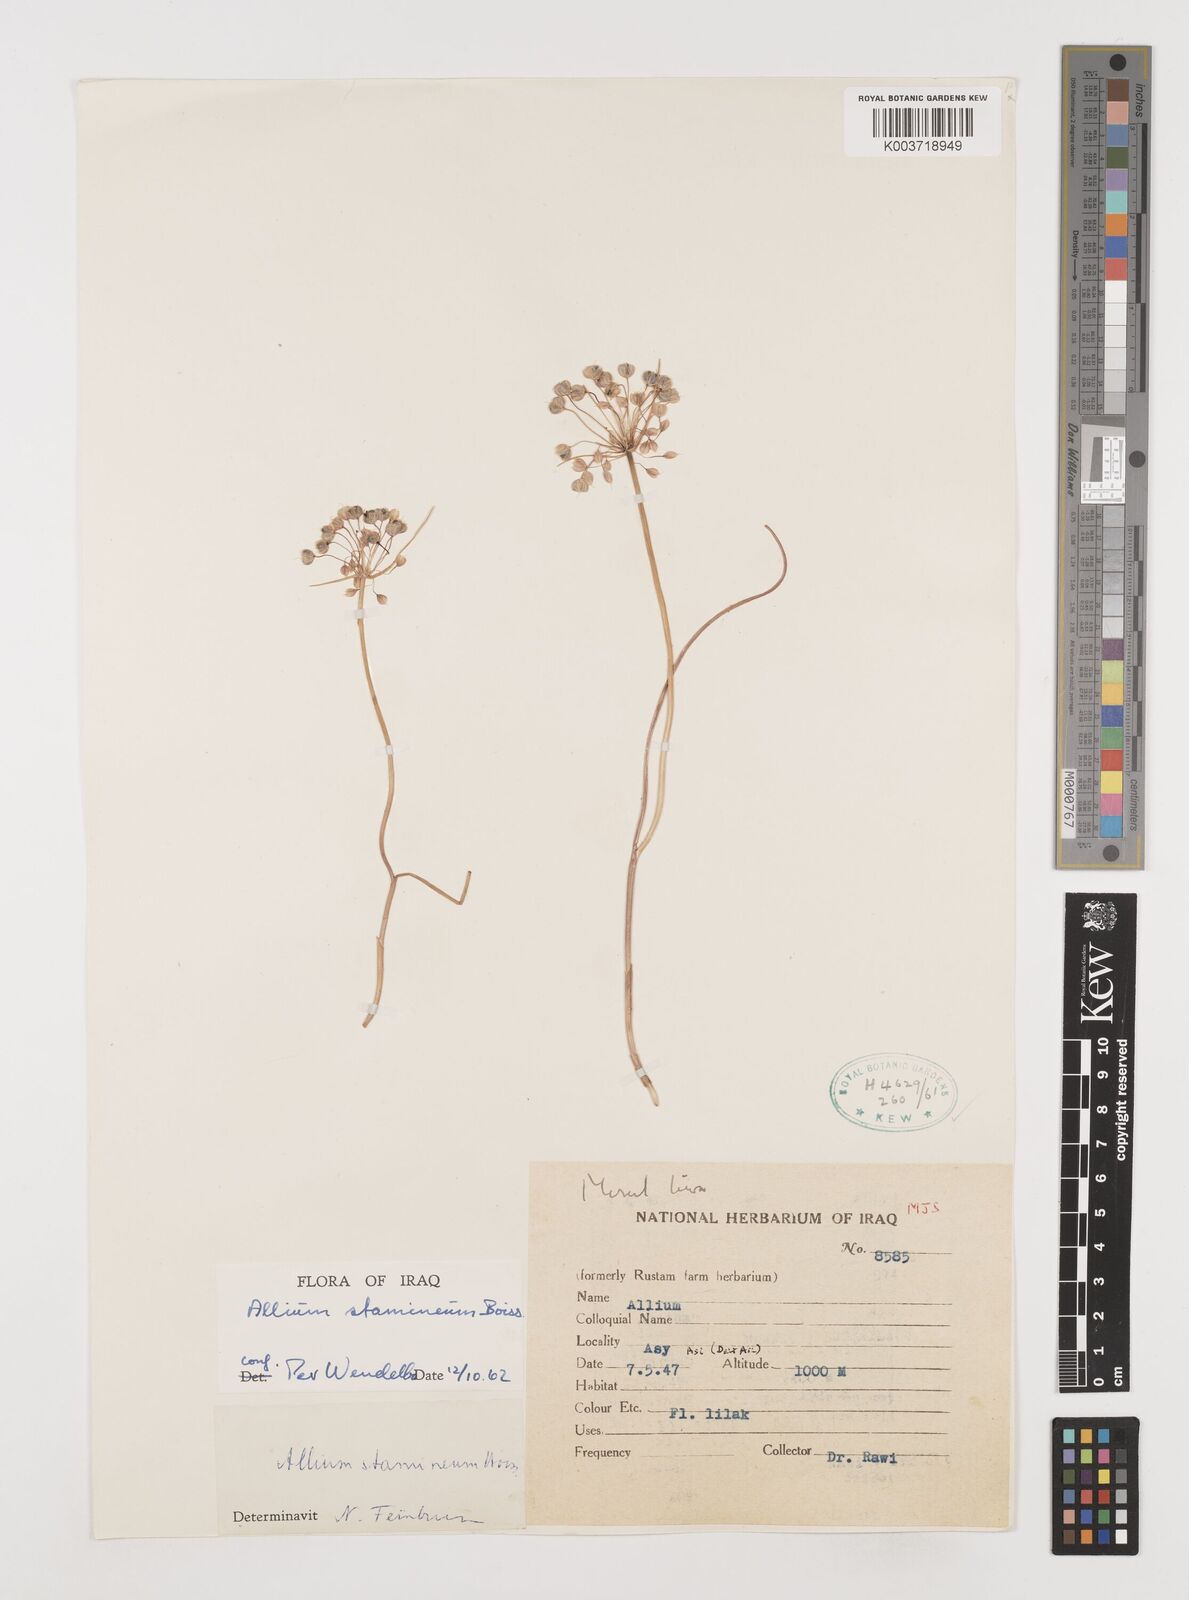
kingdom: Plantae
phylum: Tracheophyta
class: Liliopsida
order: Asparagales
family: Amaryllidaceae
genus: Allium
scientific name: Allium stamineum
